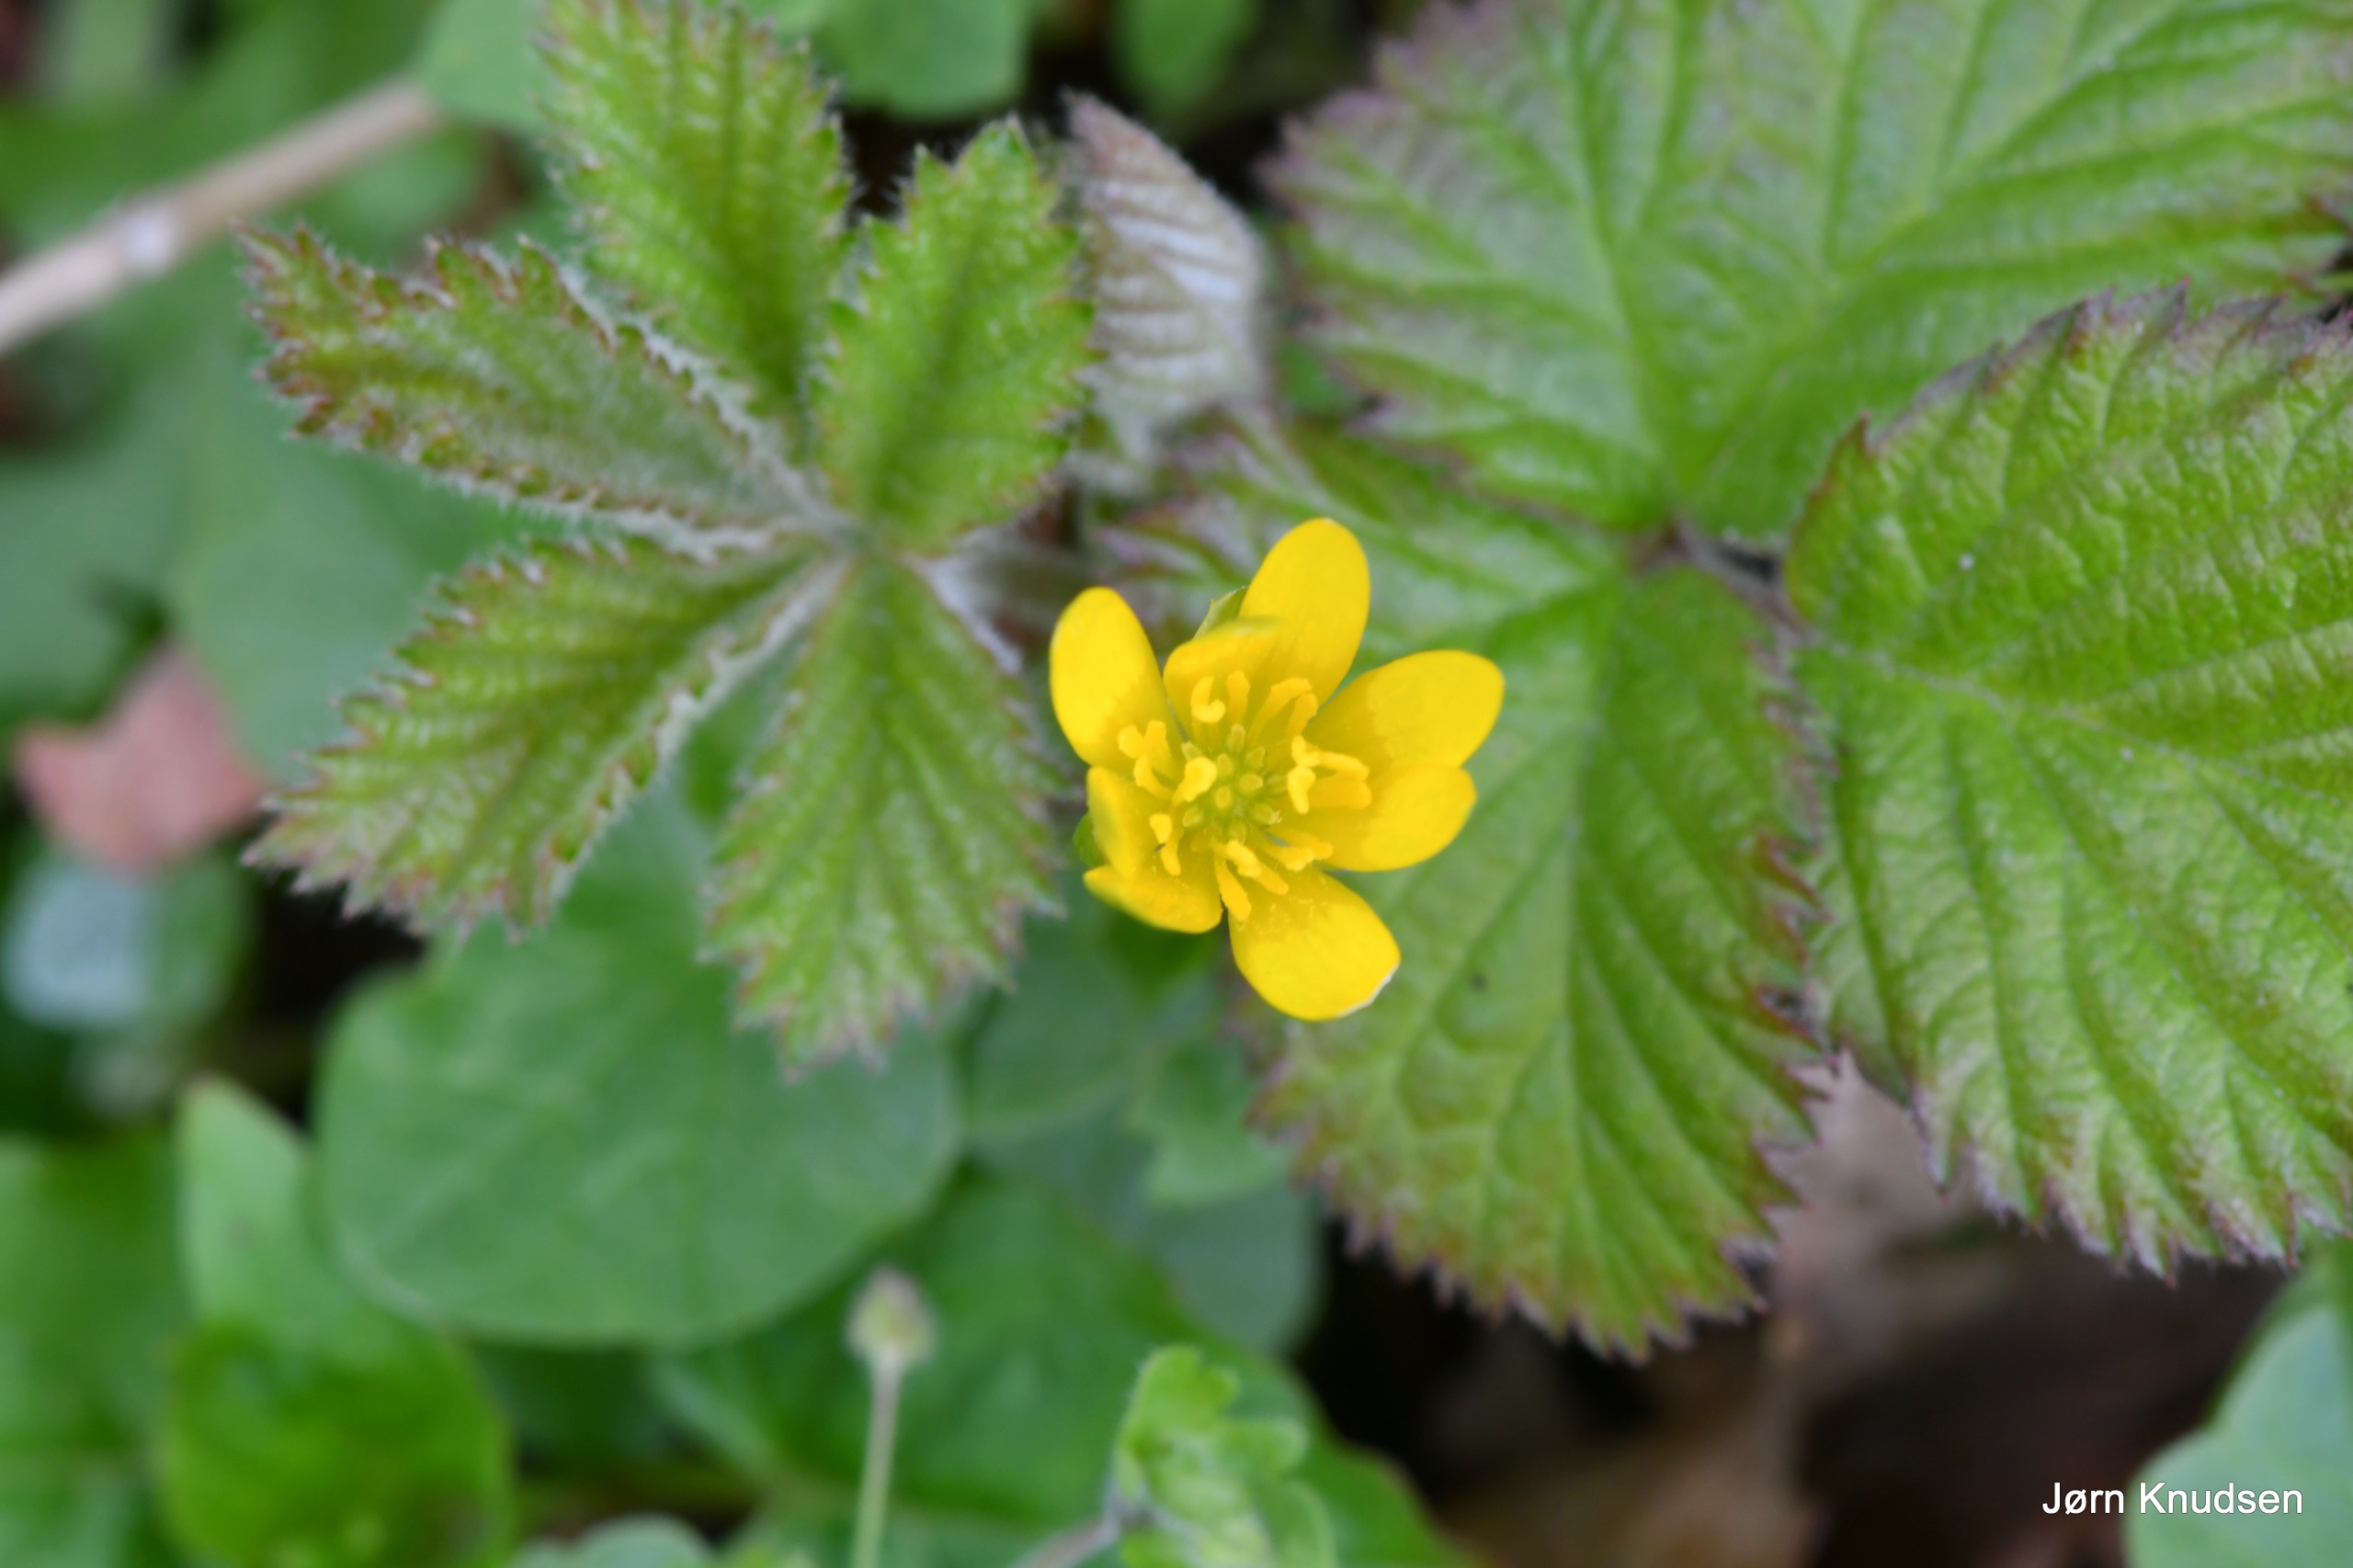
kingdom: Plantae
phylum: Tracheophyta
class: Magnoliopsida
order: Ranunculales
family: Ranunculaceae
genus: Ficaria
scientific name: Ficaria verna
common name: Vorterod
